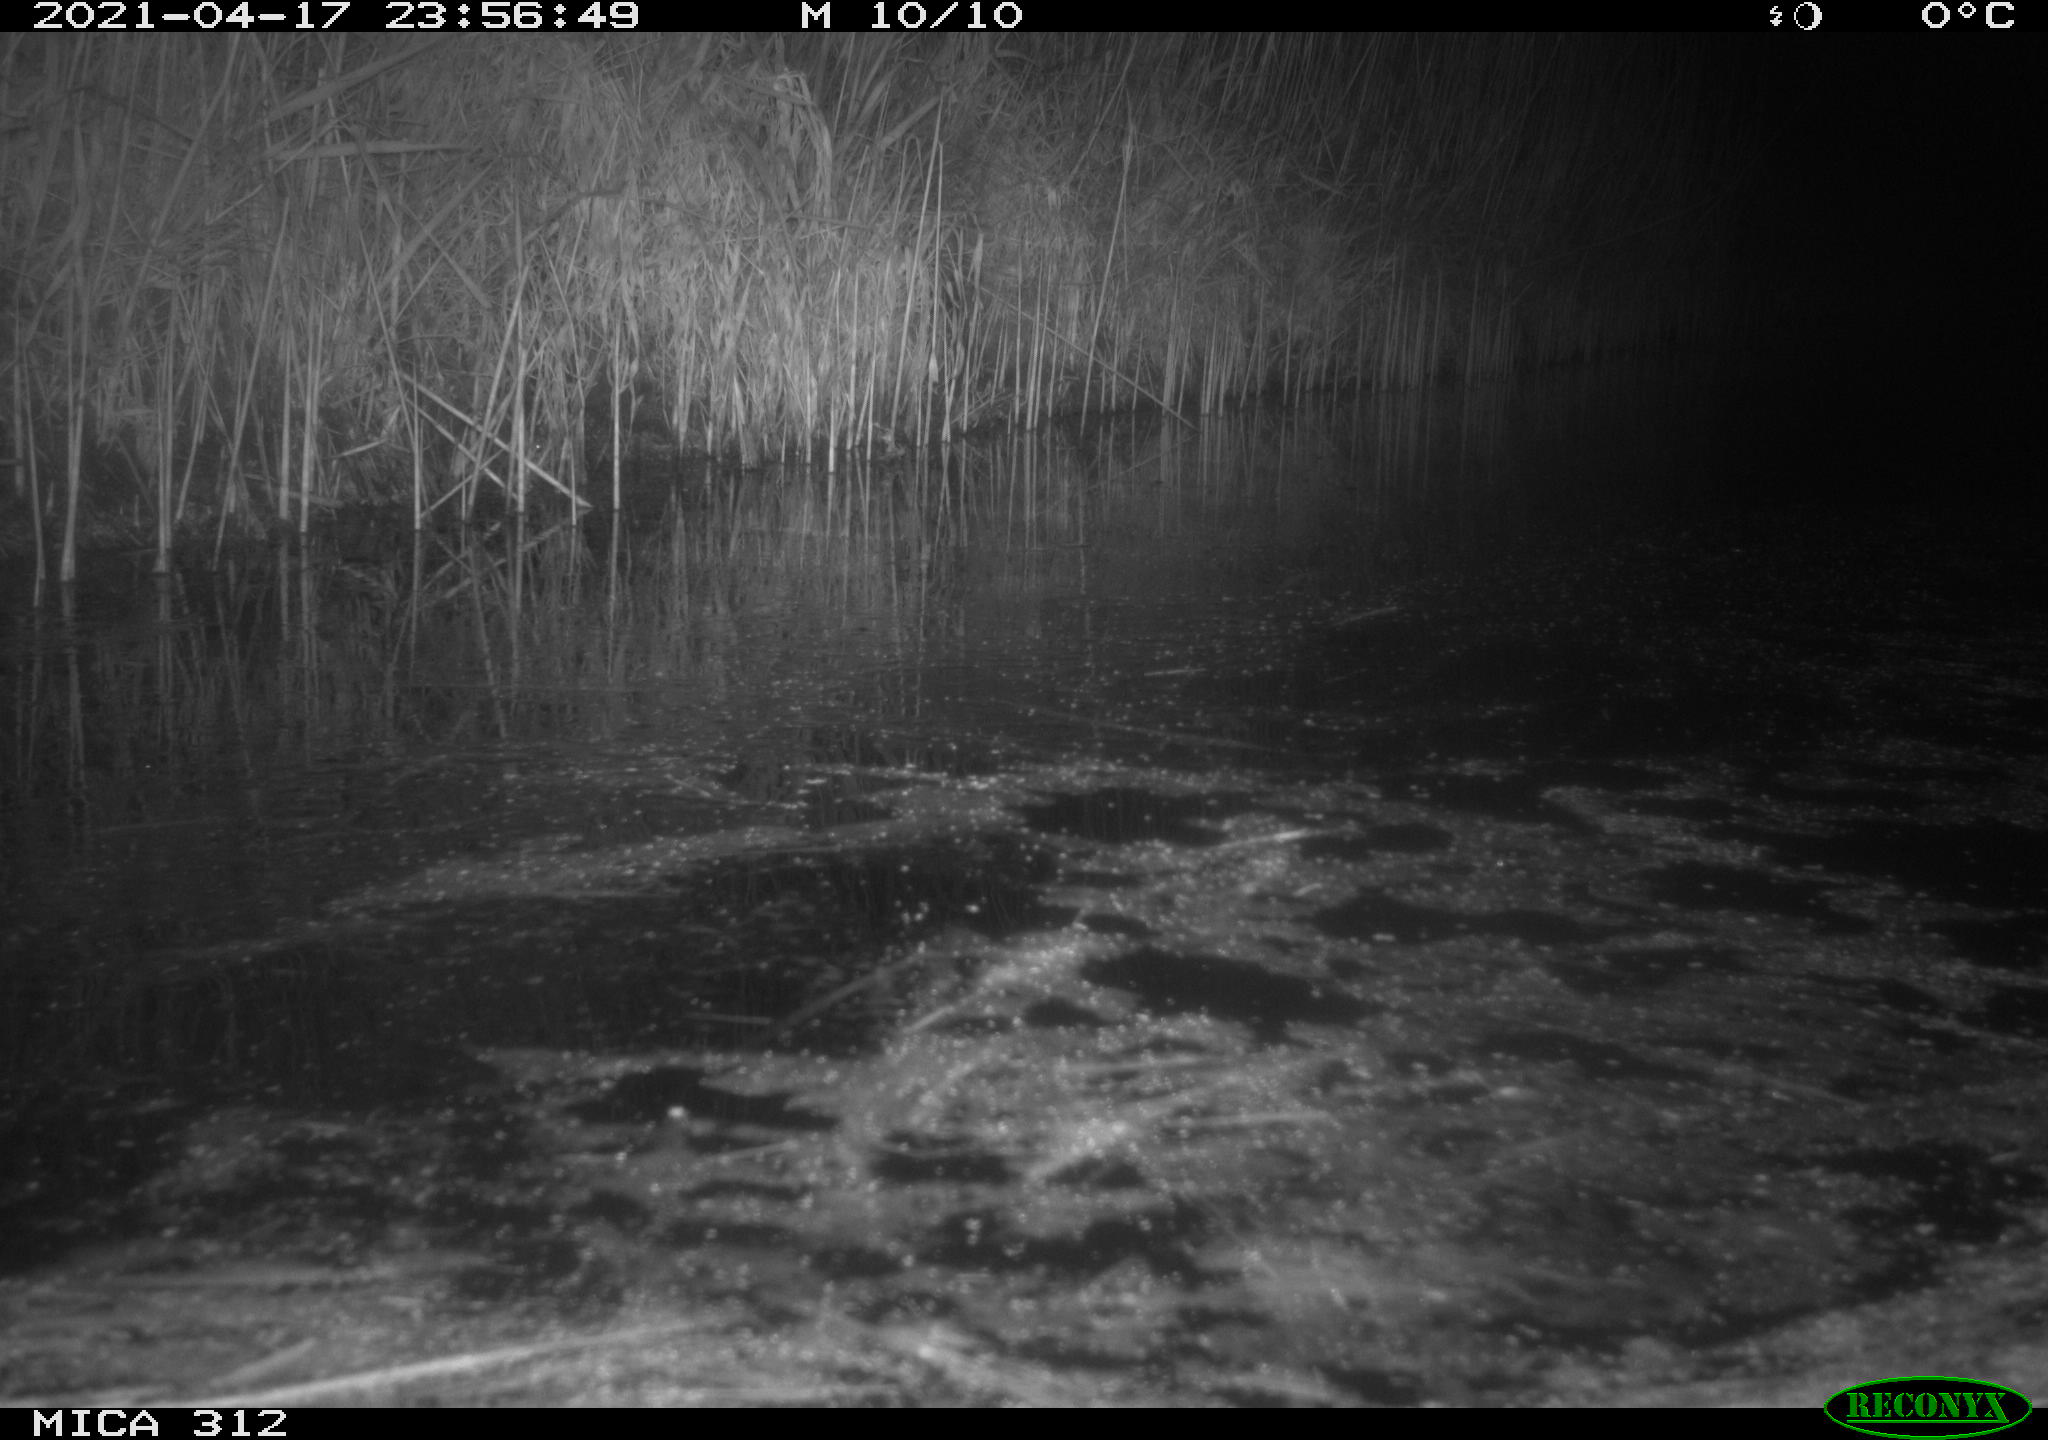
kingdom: Animalia
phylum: Chordata
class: Aves
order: Gruiformes
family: Rallidae
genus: Fulica
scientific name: Fulica atra
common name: Eurasian coot
